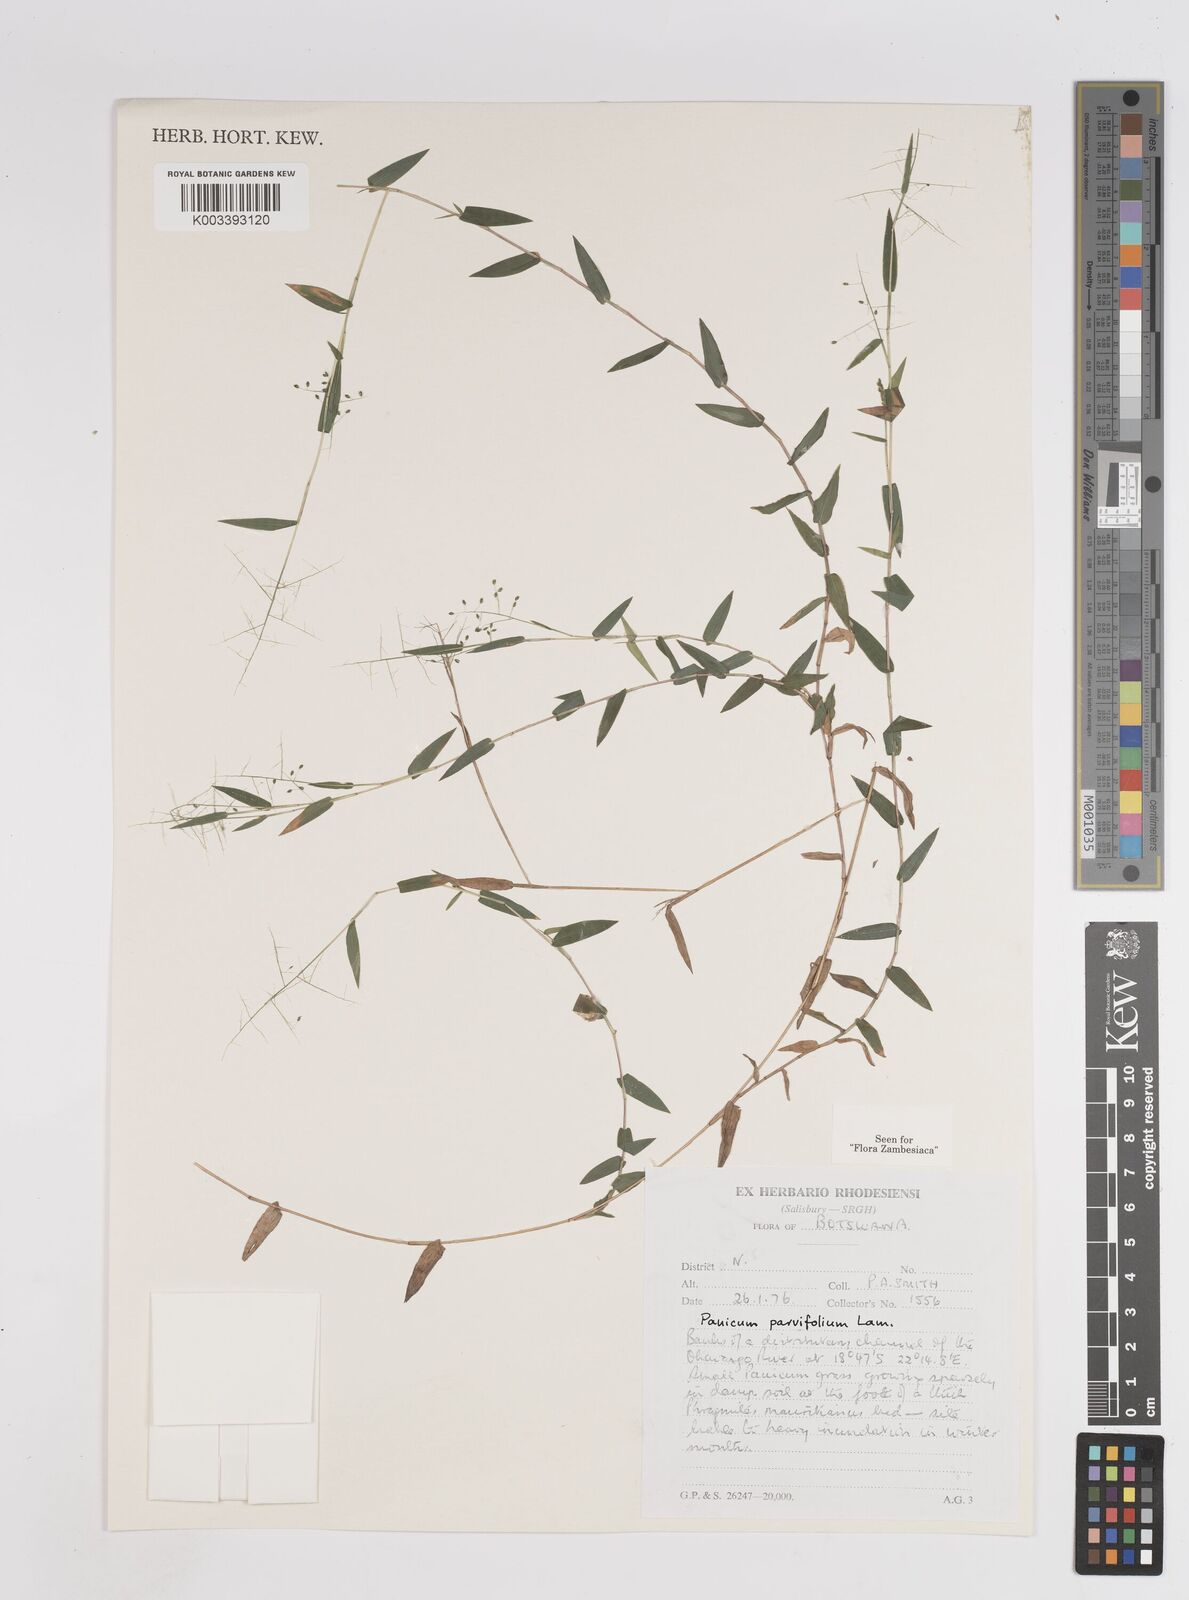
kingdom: Plantae
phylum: Tracheophyta
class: Liliopsida
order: Poales
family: Poaceae
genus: Trichanthecium
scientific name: Trichanthecium parvifolium
